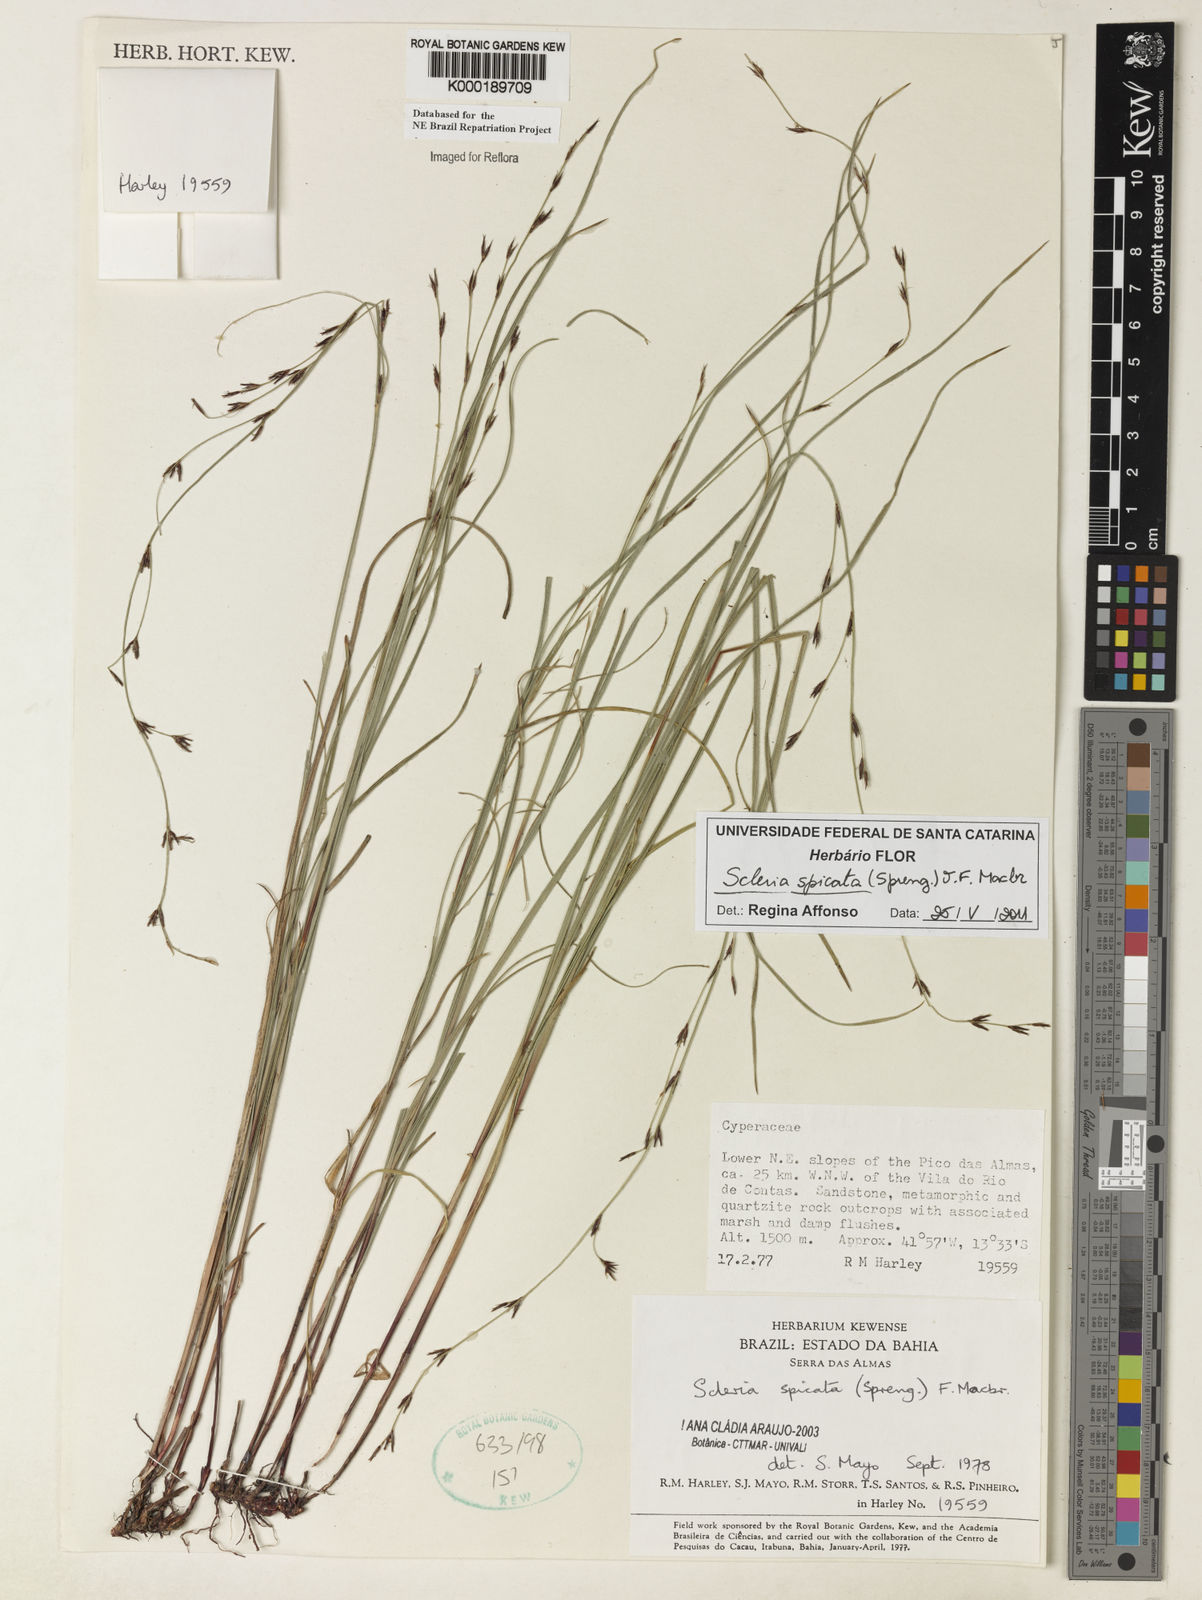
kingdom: Plantae
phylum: Tracheophyta
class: Liliopsida
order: Poales
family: Cyperaceae
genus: Scleria
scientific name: Scleria spicata
